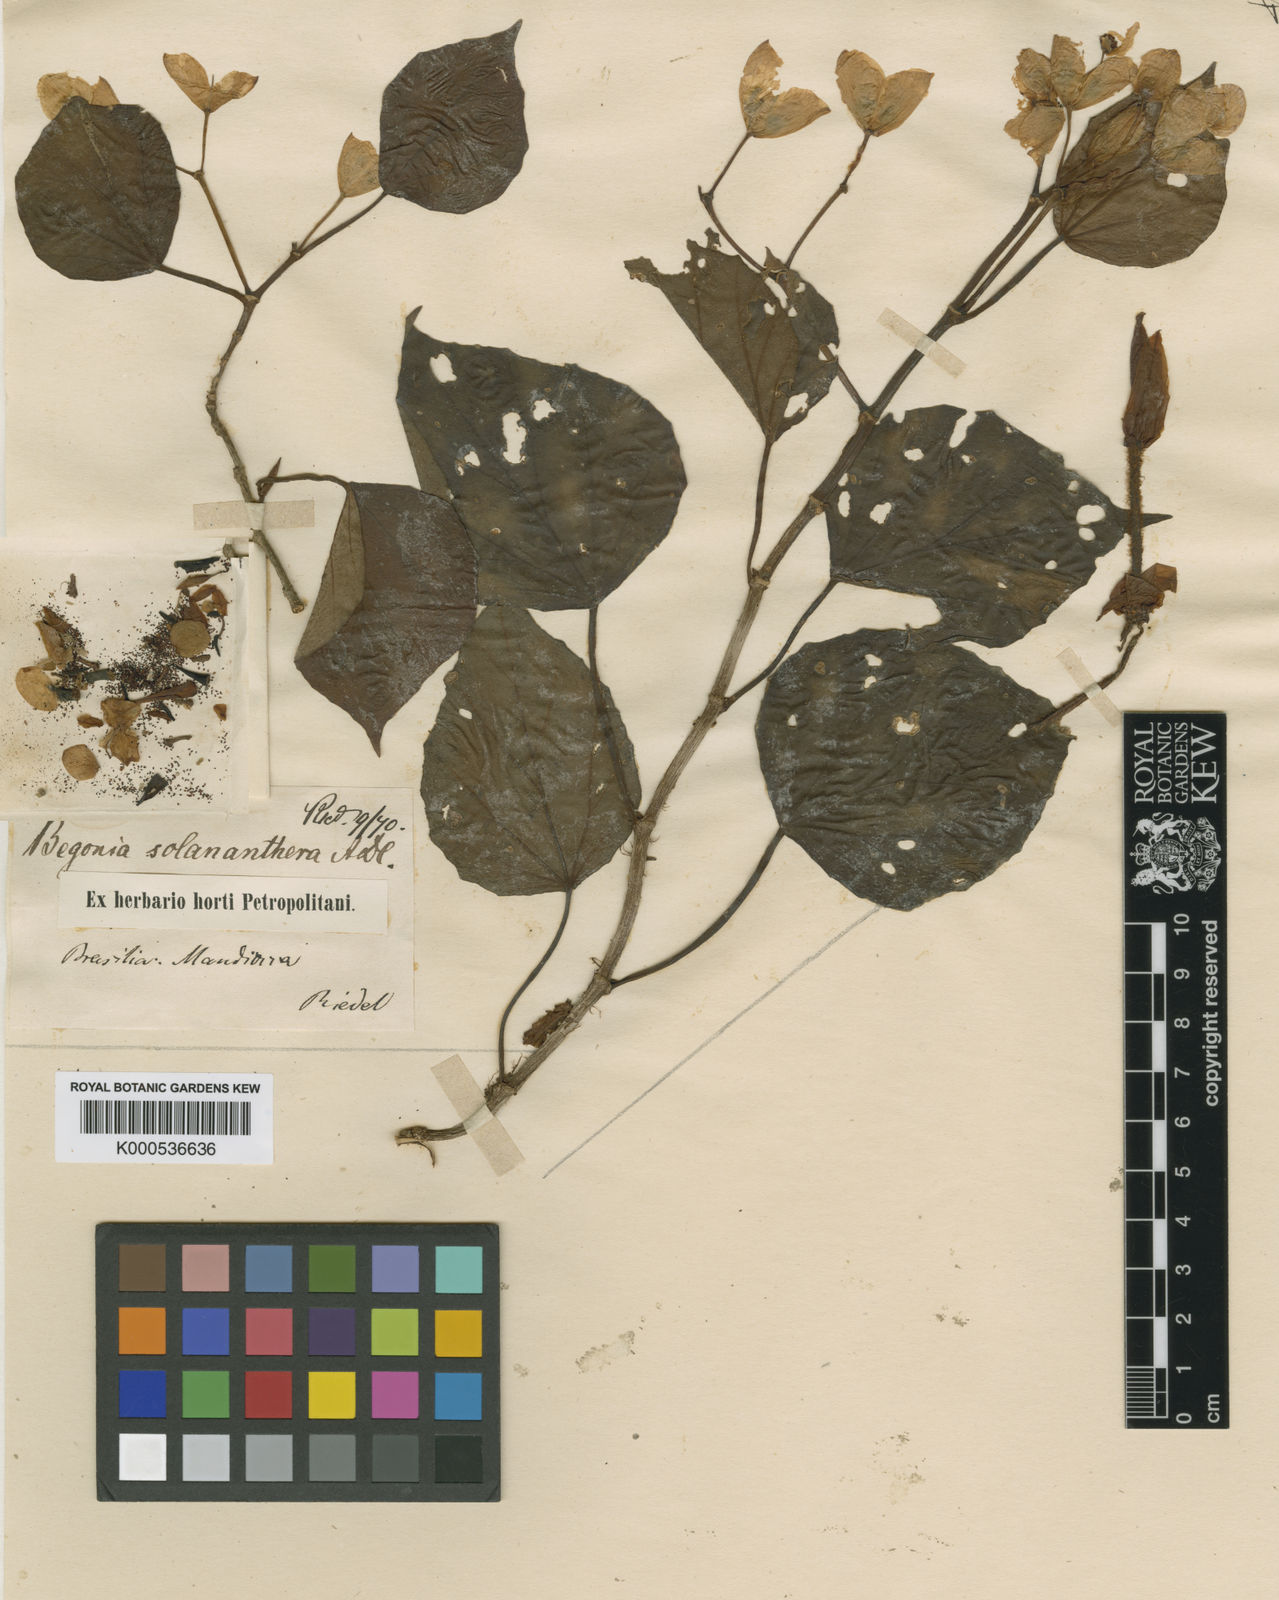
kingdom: Plantae
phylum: Tracheophyta
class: Magnoliopsida
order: Cucurbitales
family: Begoniaceae
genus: Begonia
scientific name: Begonia solananthera
